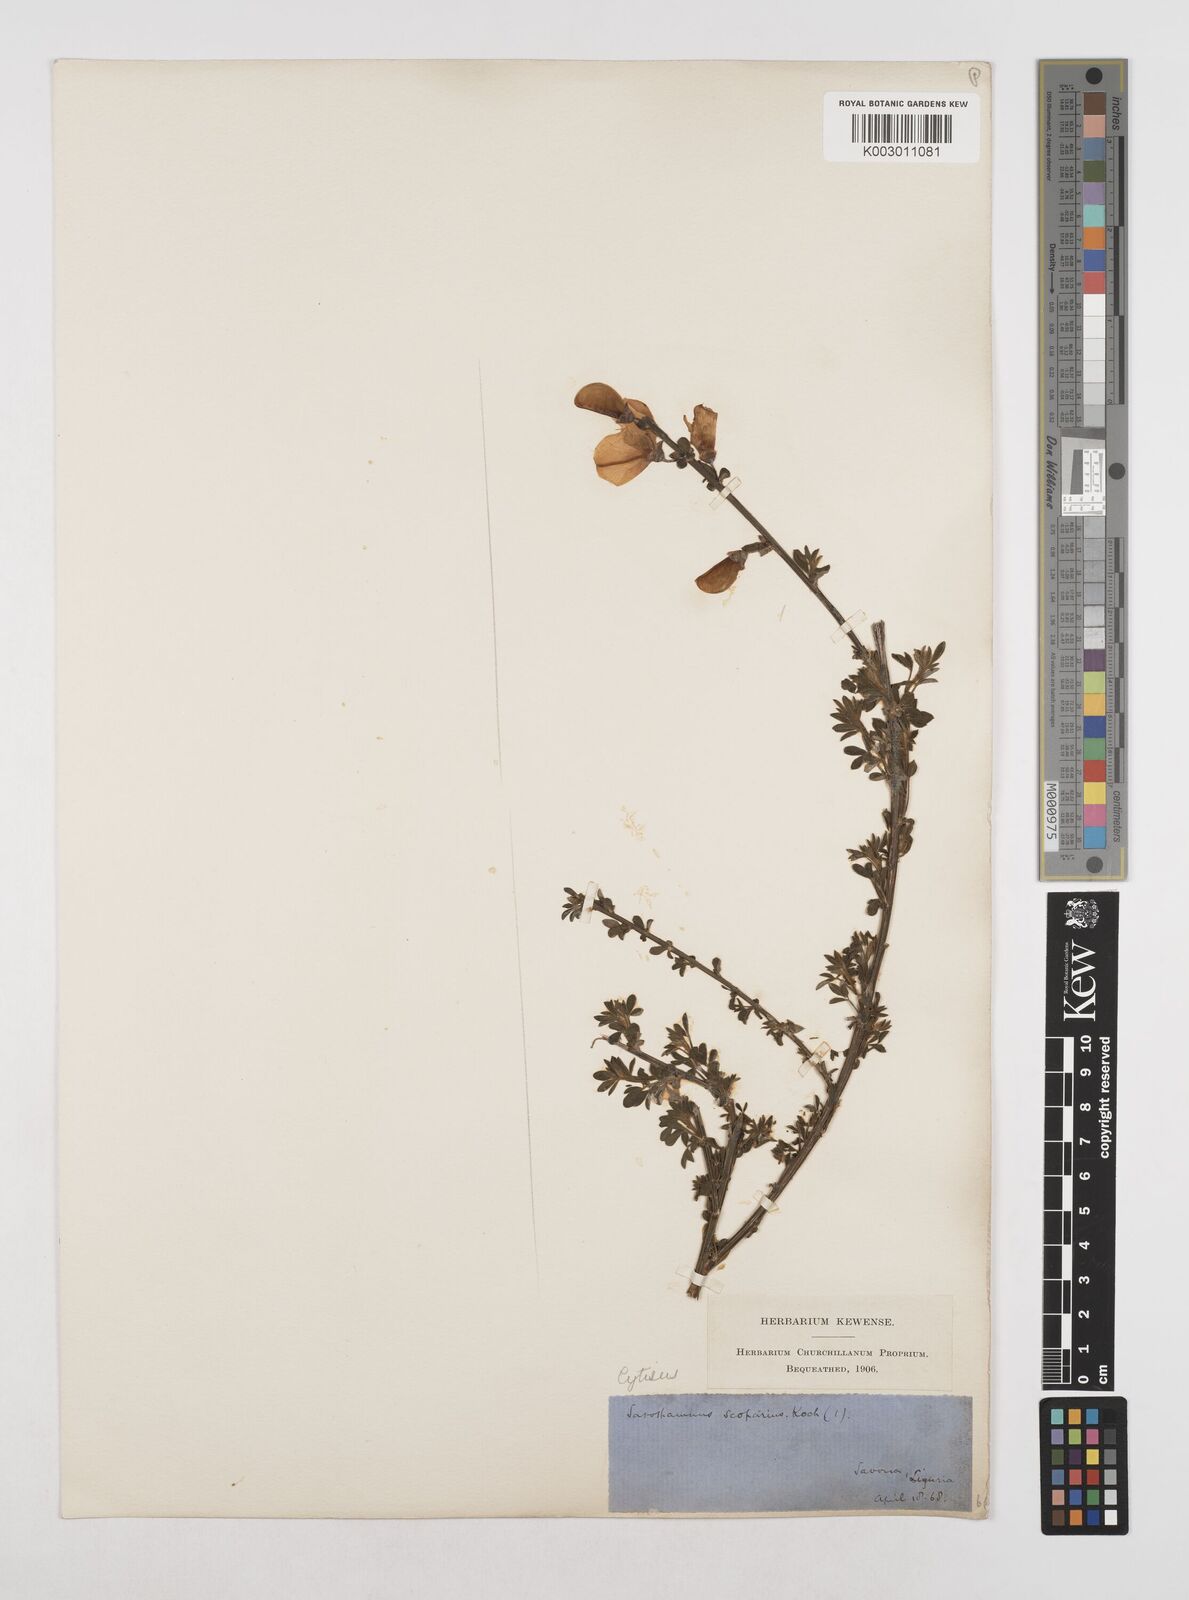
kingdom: Plantae
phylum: Tracheophyta
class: Magnoliopsida
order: Fabales
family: Fabaceae
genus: Cytisus
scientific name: Cytisus scoparius
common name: Scotch broom
